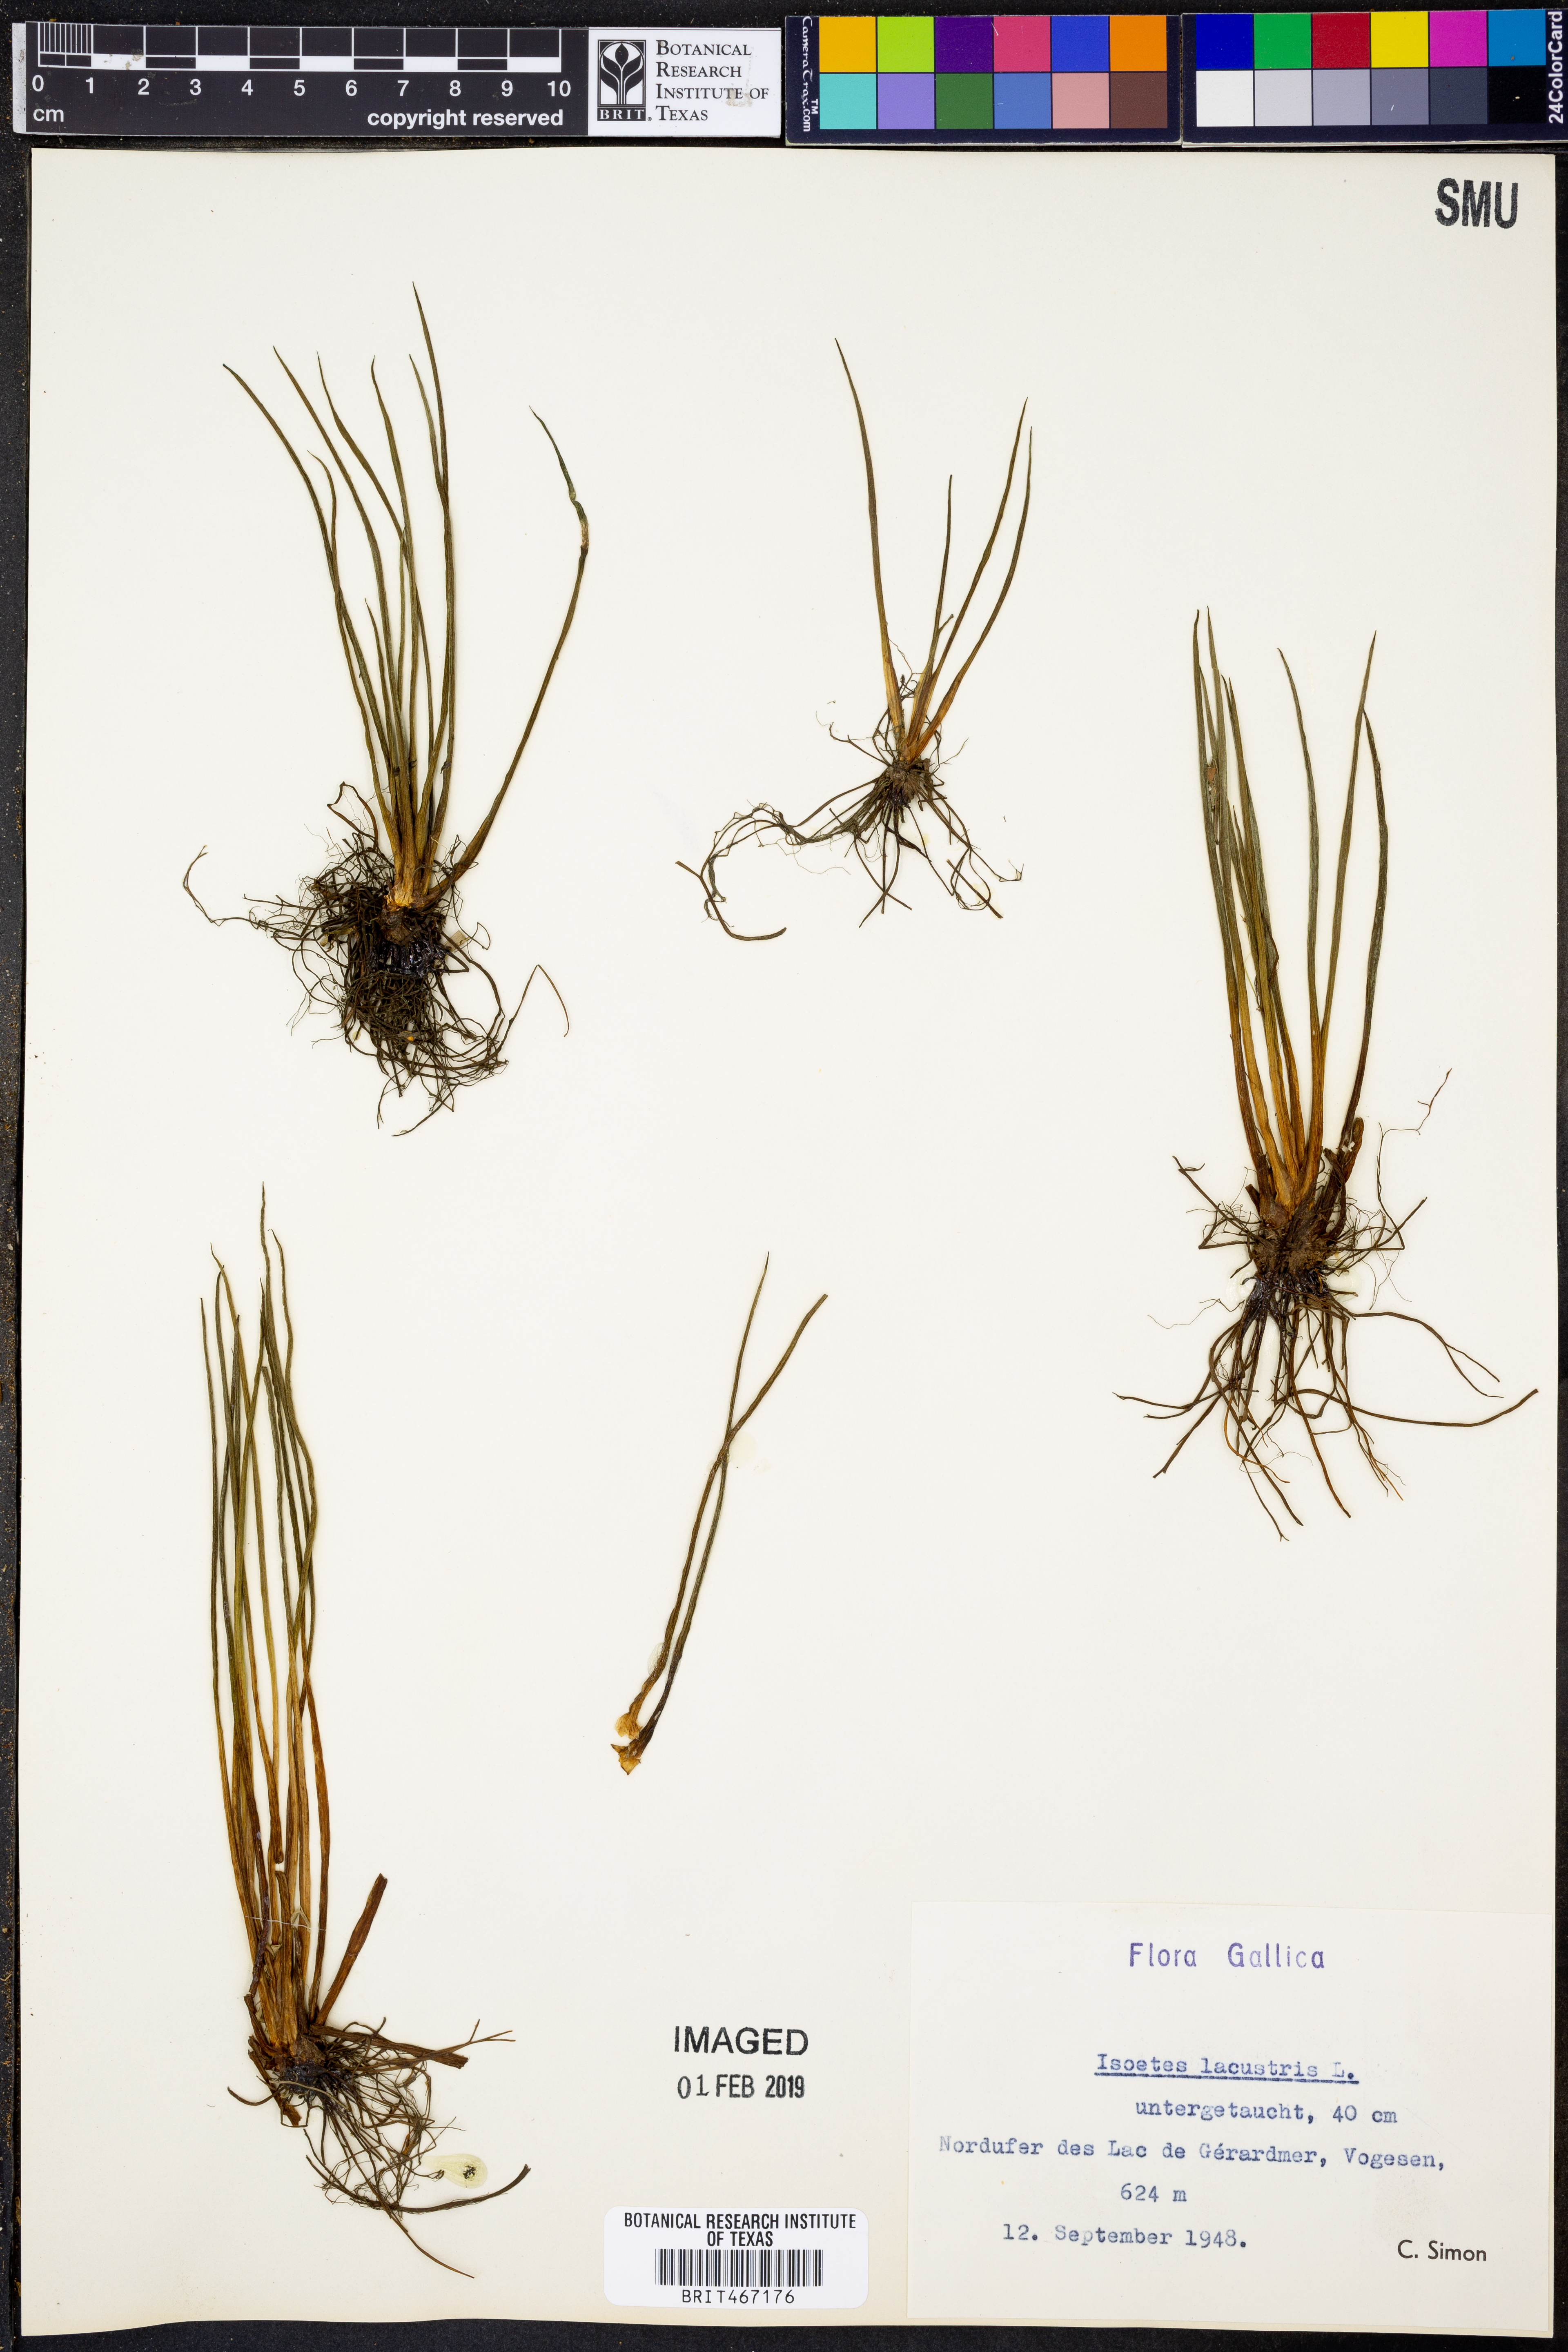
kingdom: Plantae
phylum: Tracheophyta
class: Lycopodiopsida
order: Isoetales
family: Isoetaceae
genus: Isoetes
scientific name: Isoetes lacustris
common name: Common quillwort
